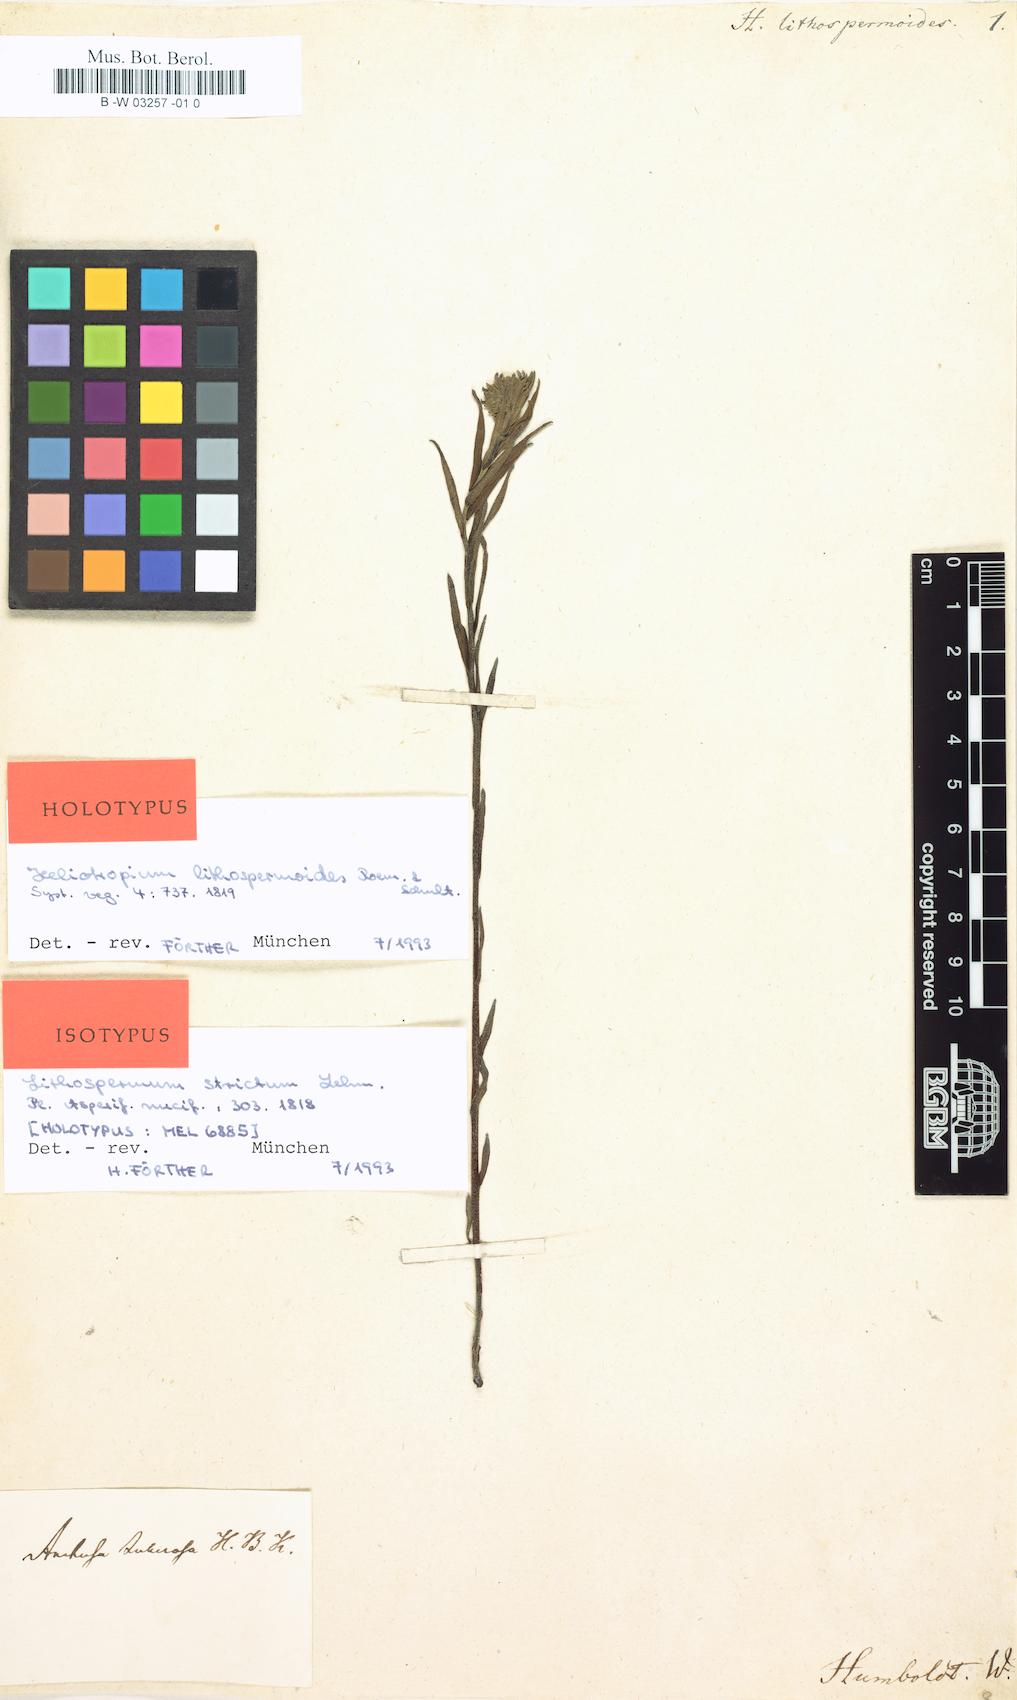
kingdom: Plantae
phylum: Tracheophyta
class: Magnoliopsida
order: Boraginales
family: Boraginaceae
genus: Lithospermum
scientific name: Lithospermum strictum
